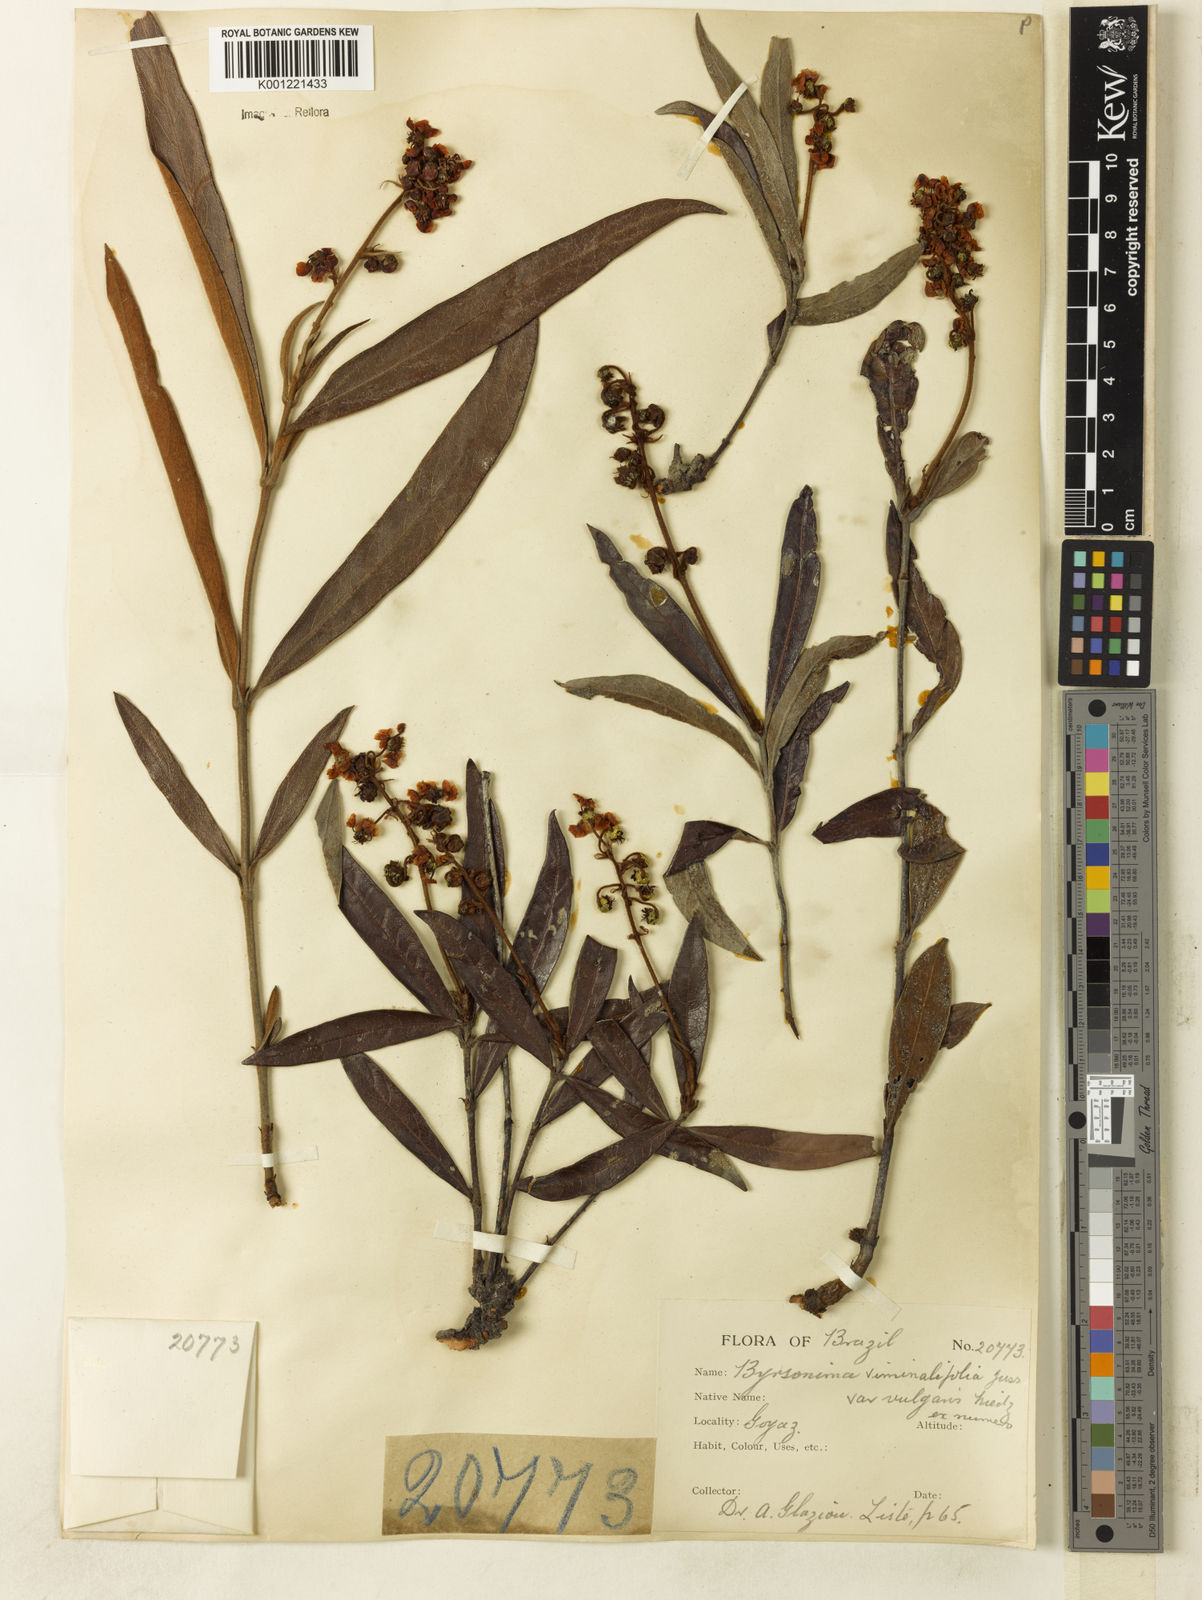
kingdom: Plantae
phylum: Tracheophyta
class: Magnoliopsida
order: Malpighiales
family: Malpighiaceae
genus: Byrsonima
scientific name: Byrsonima viminifolia
